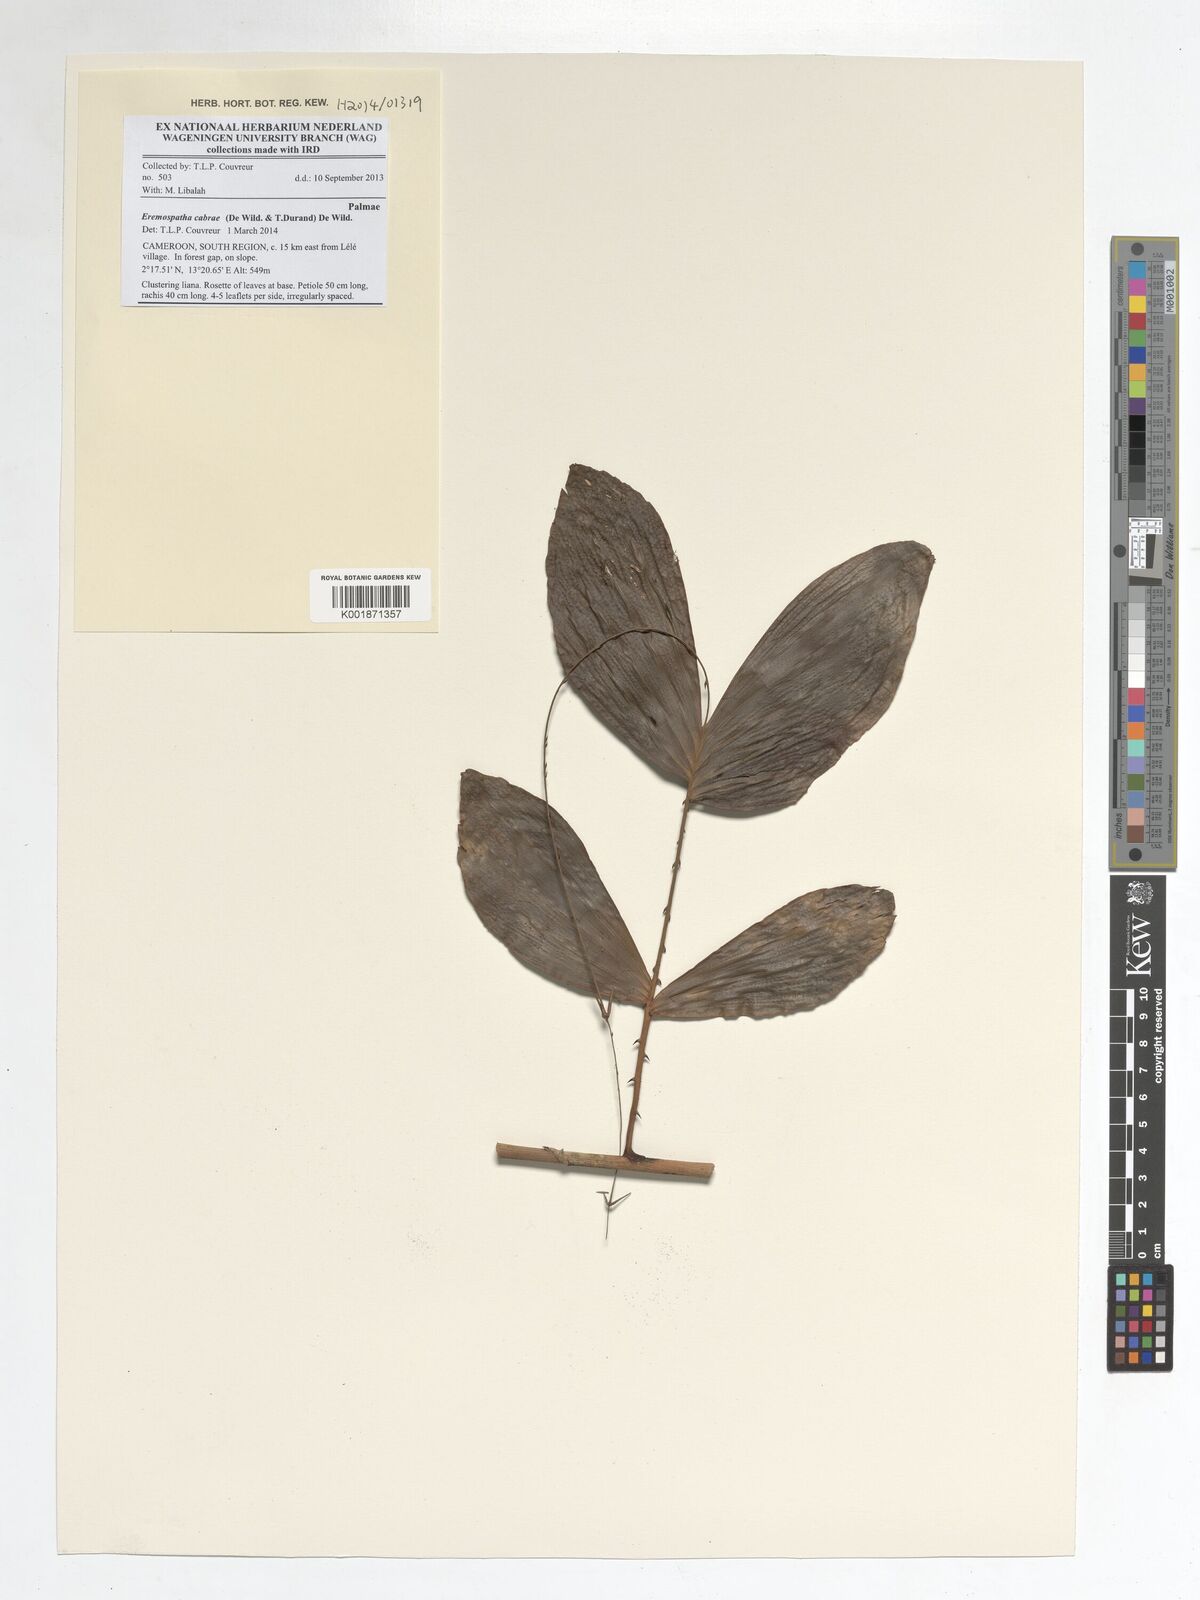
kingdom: Plantae
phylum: Tracheophyta
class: Liliopsida
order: Arecales
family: Arecaceae
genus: Eremospatha
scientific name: Eremospatha cabrae
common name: Rattan
